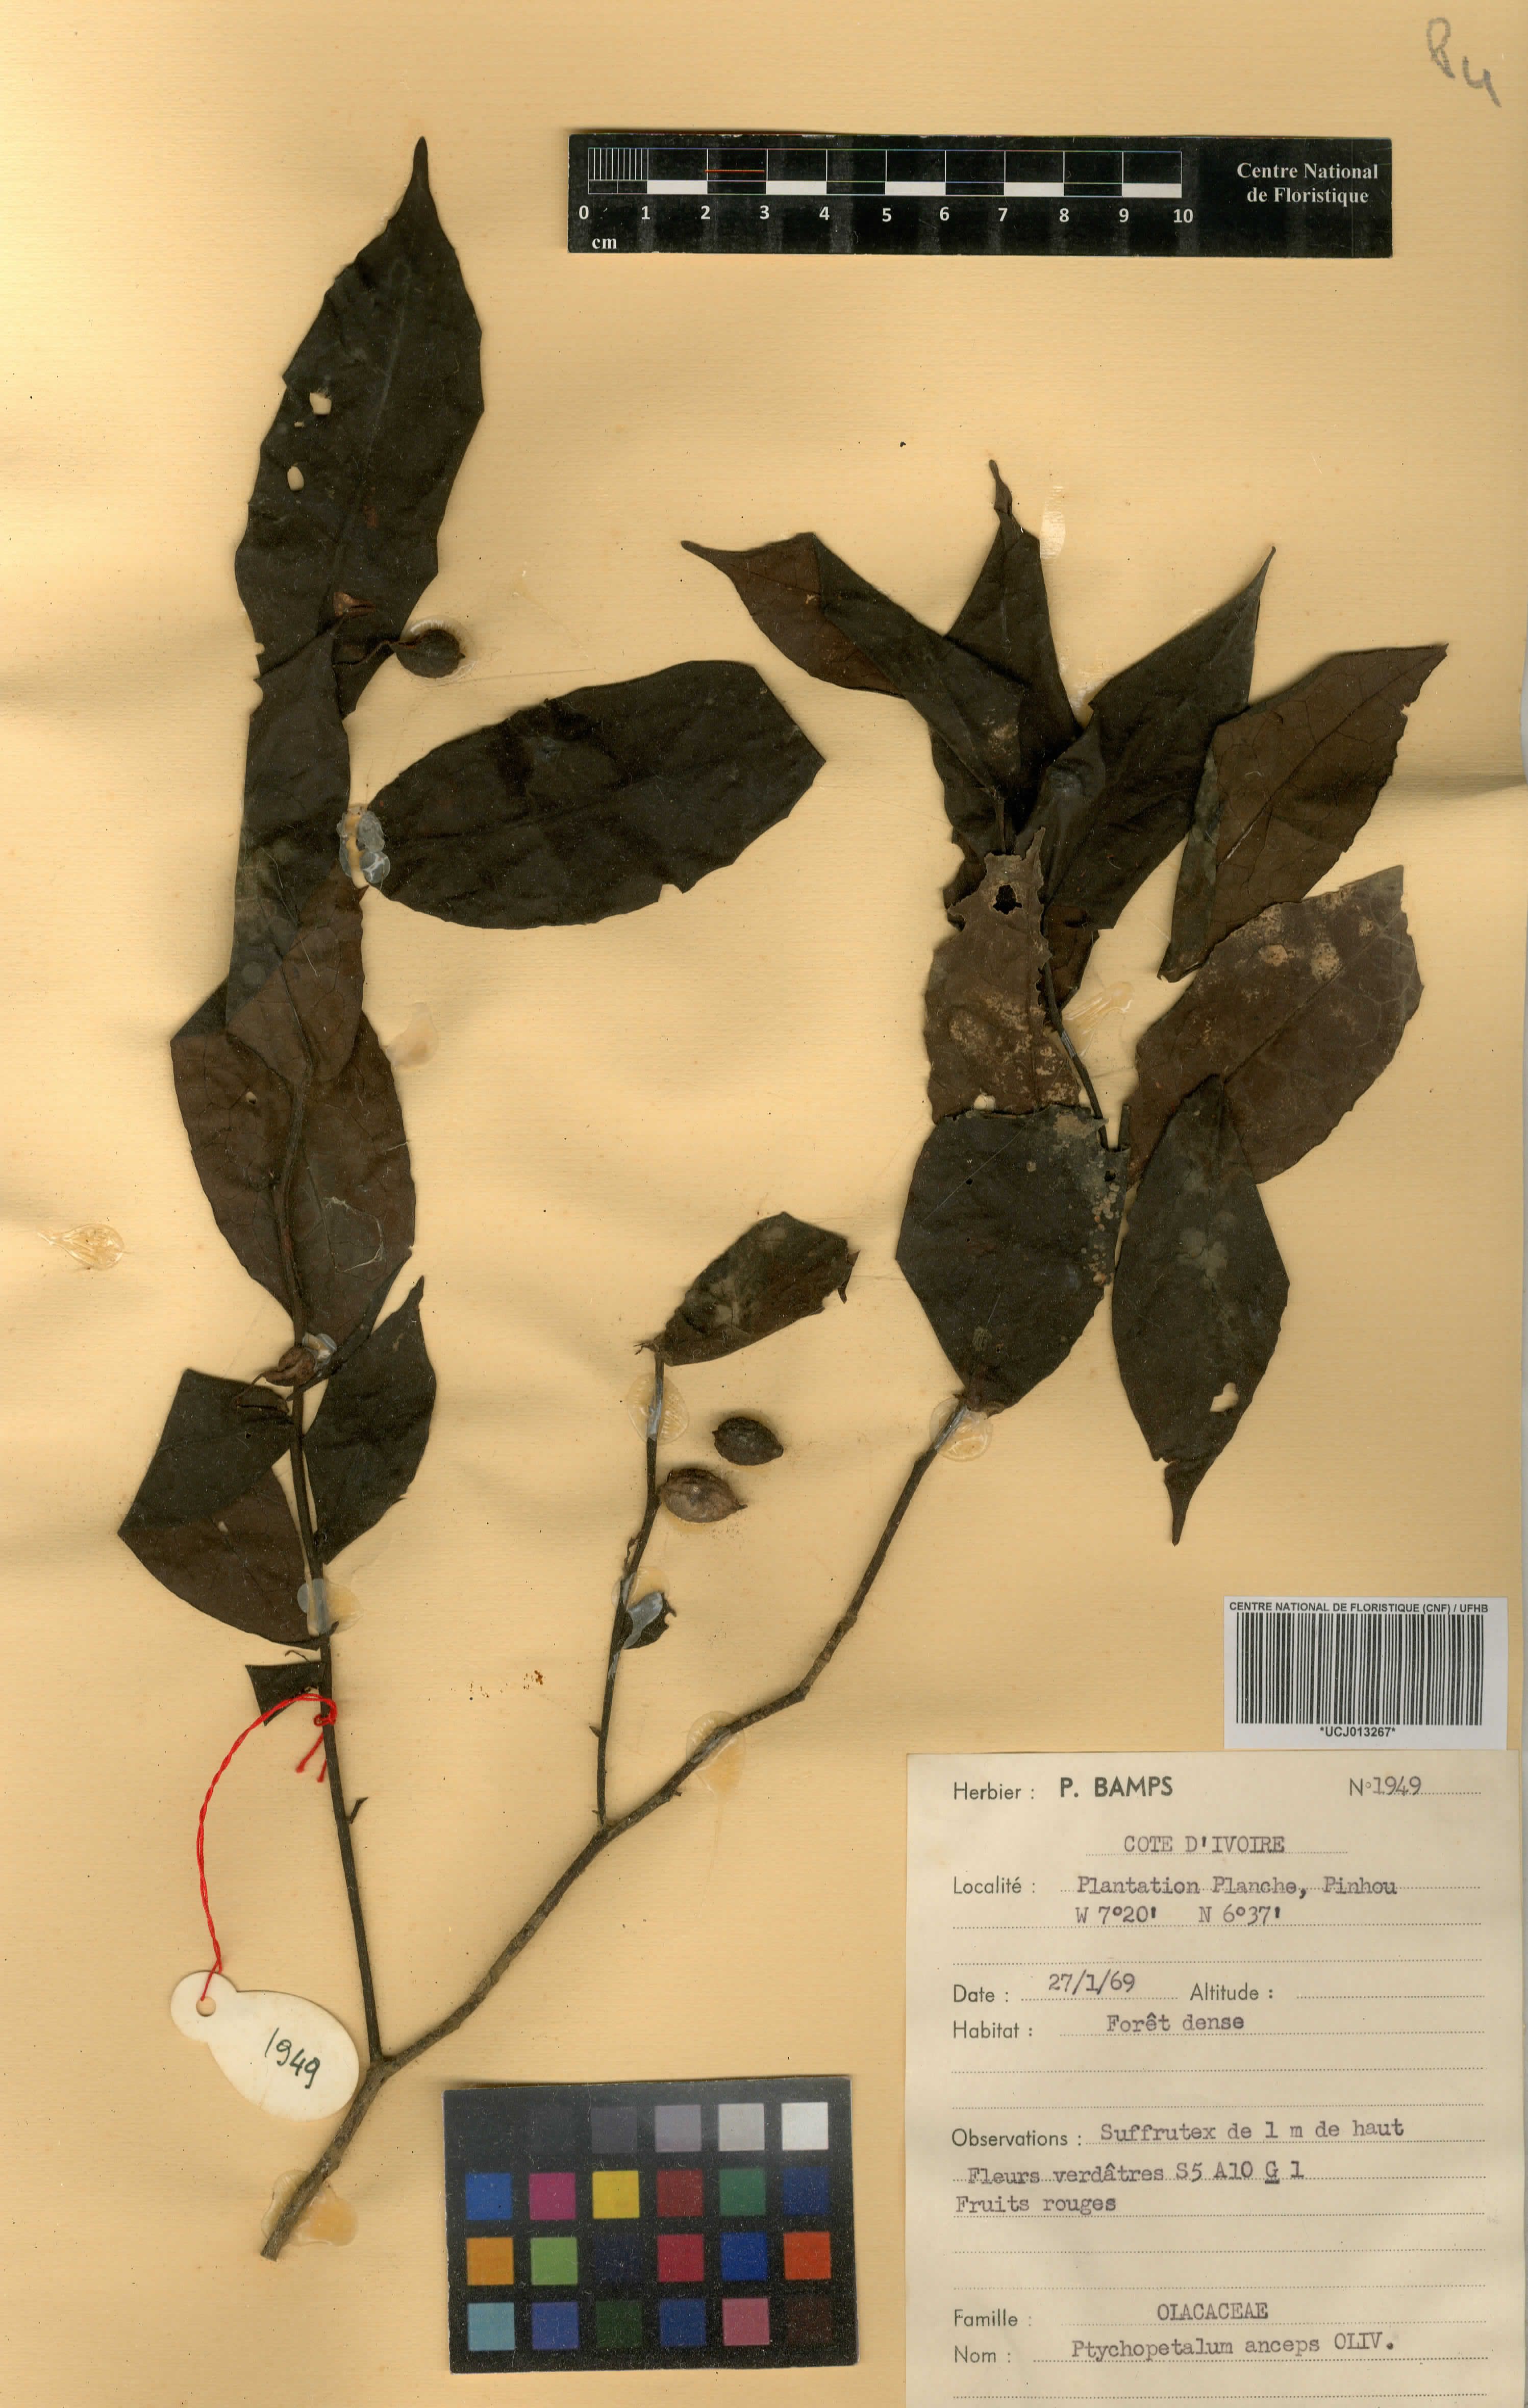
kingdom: Plantae
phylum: Tracheophyta
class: Magnoliopsida
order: Santalales
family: Olacaceae
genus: Ptychopetalum
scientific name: Ptychopetalum anceps
